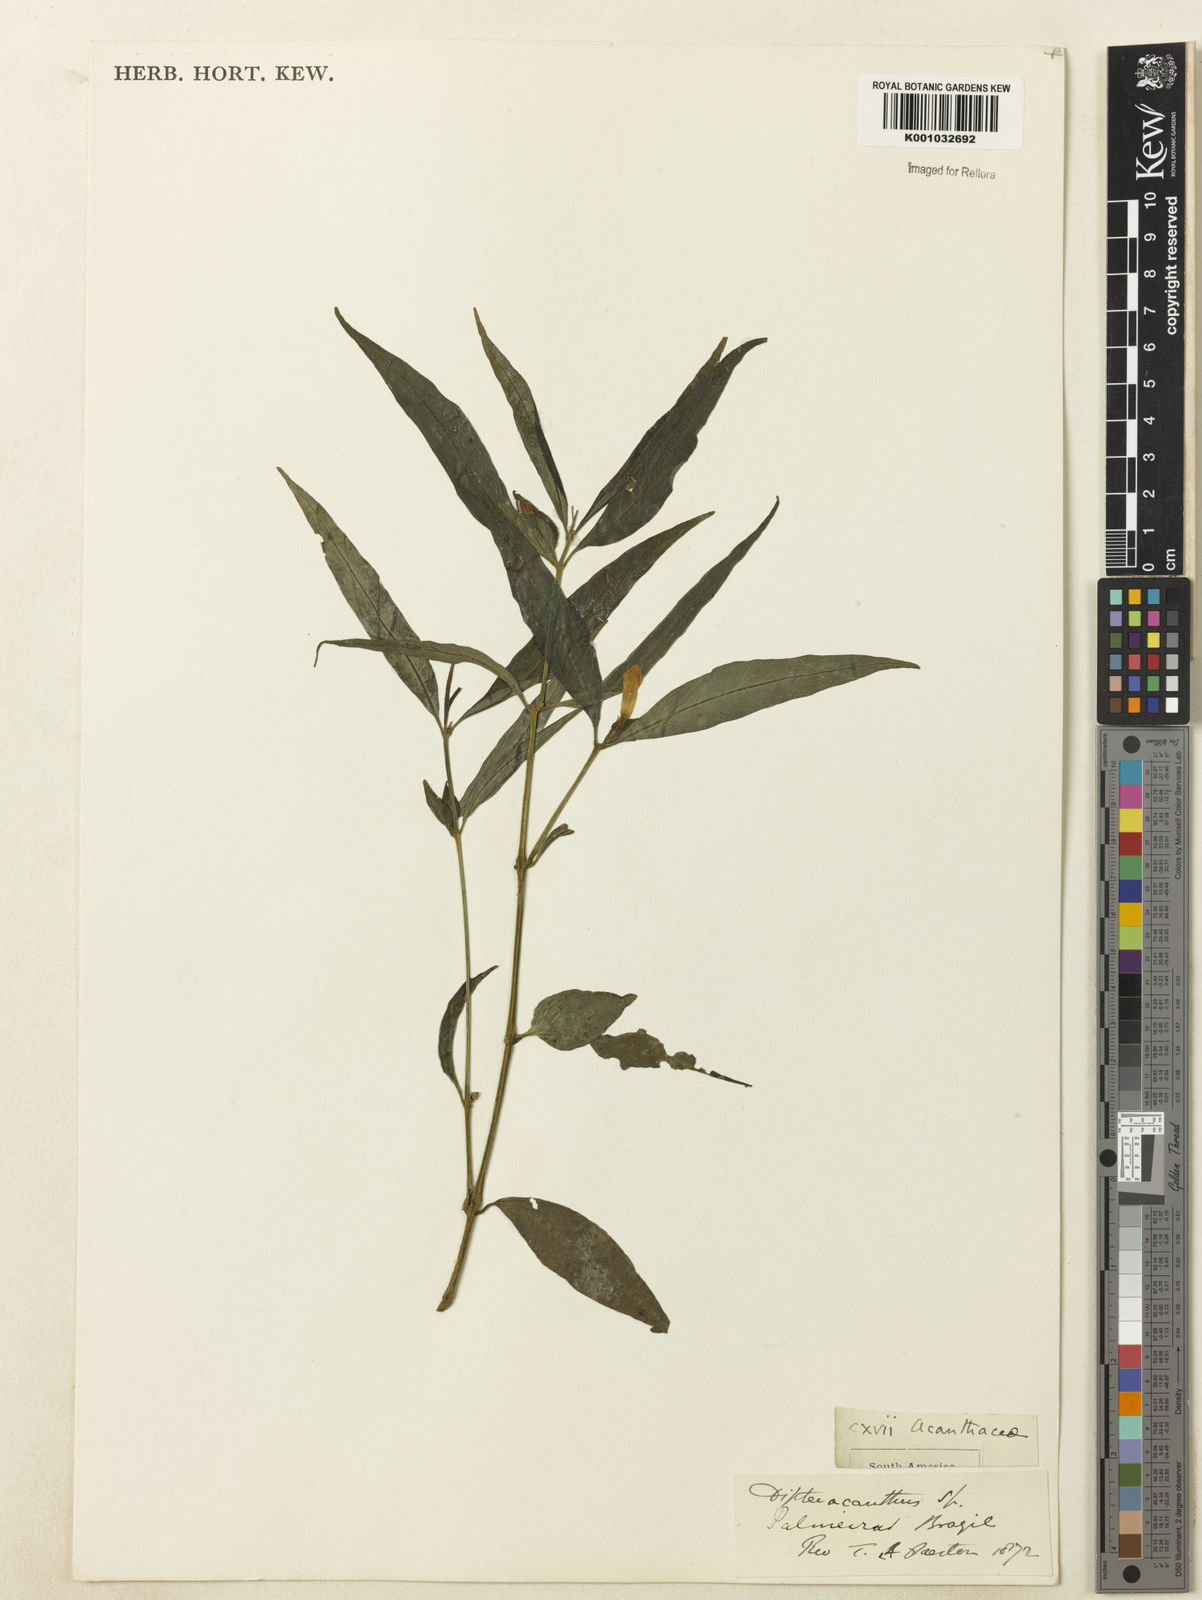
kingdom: Plantae
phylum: Tracheophyta
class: Magnoliopsida
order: Lamiales
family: Acanthaceae
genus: Ruellia
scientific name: Ruellia
